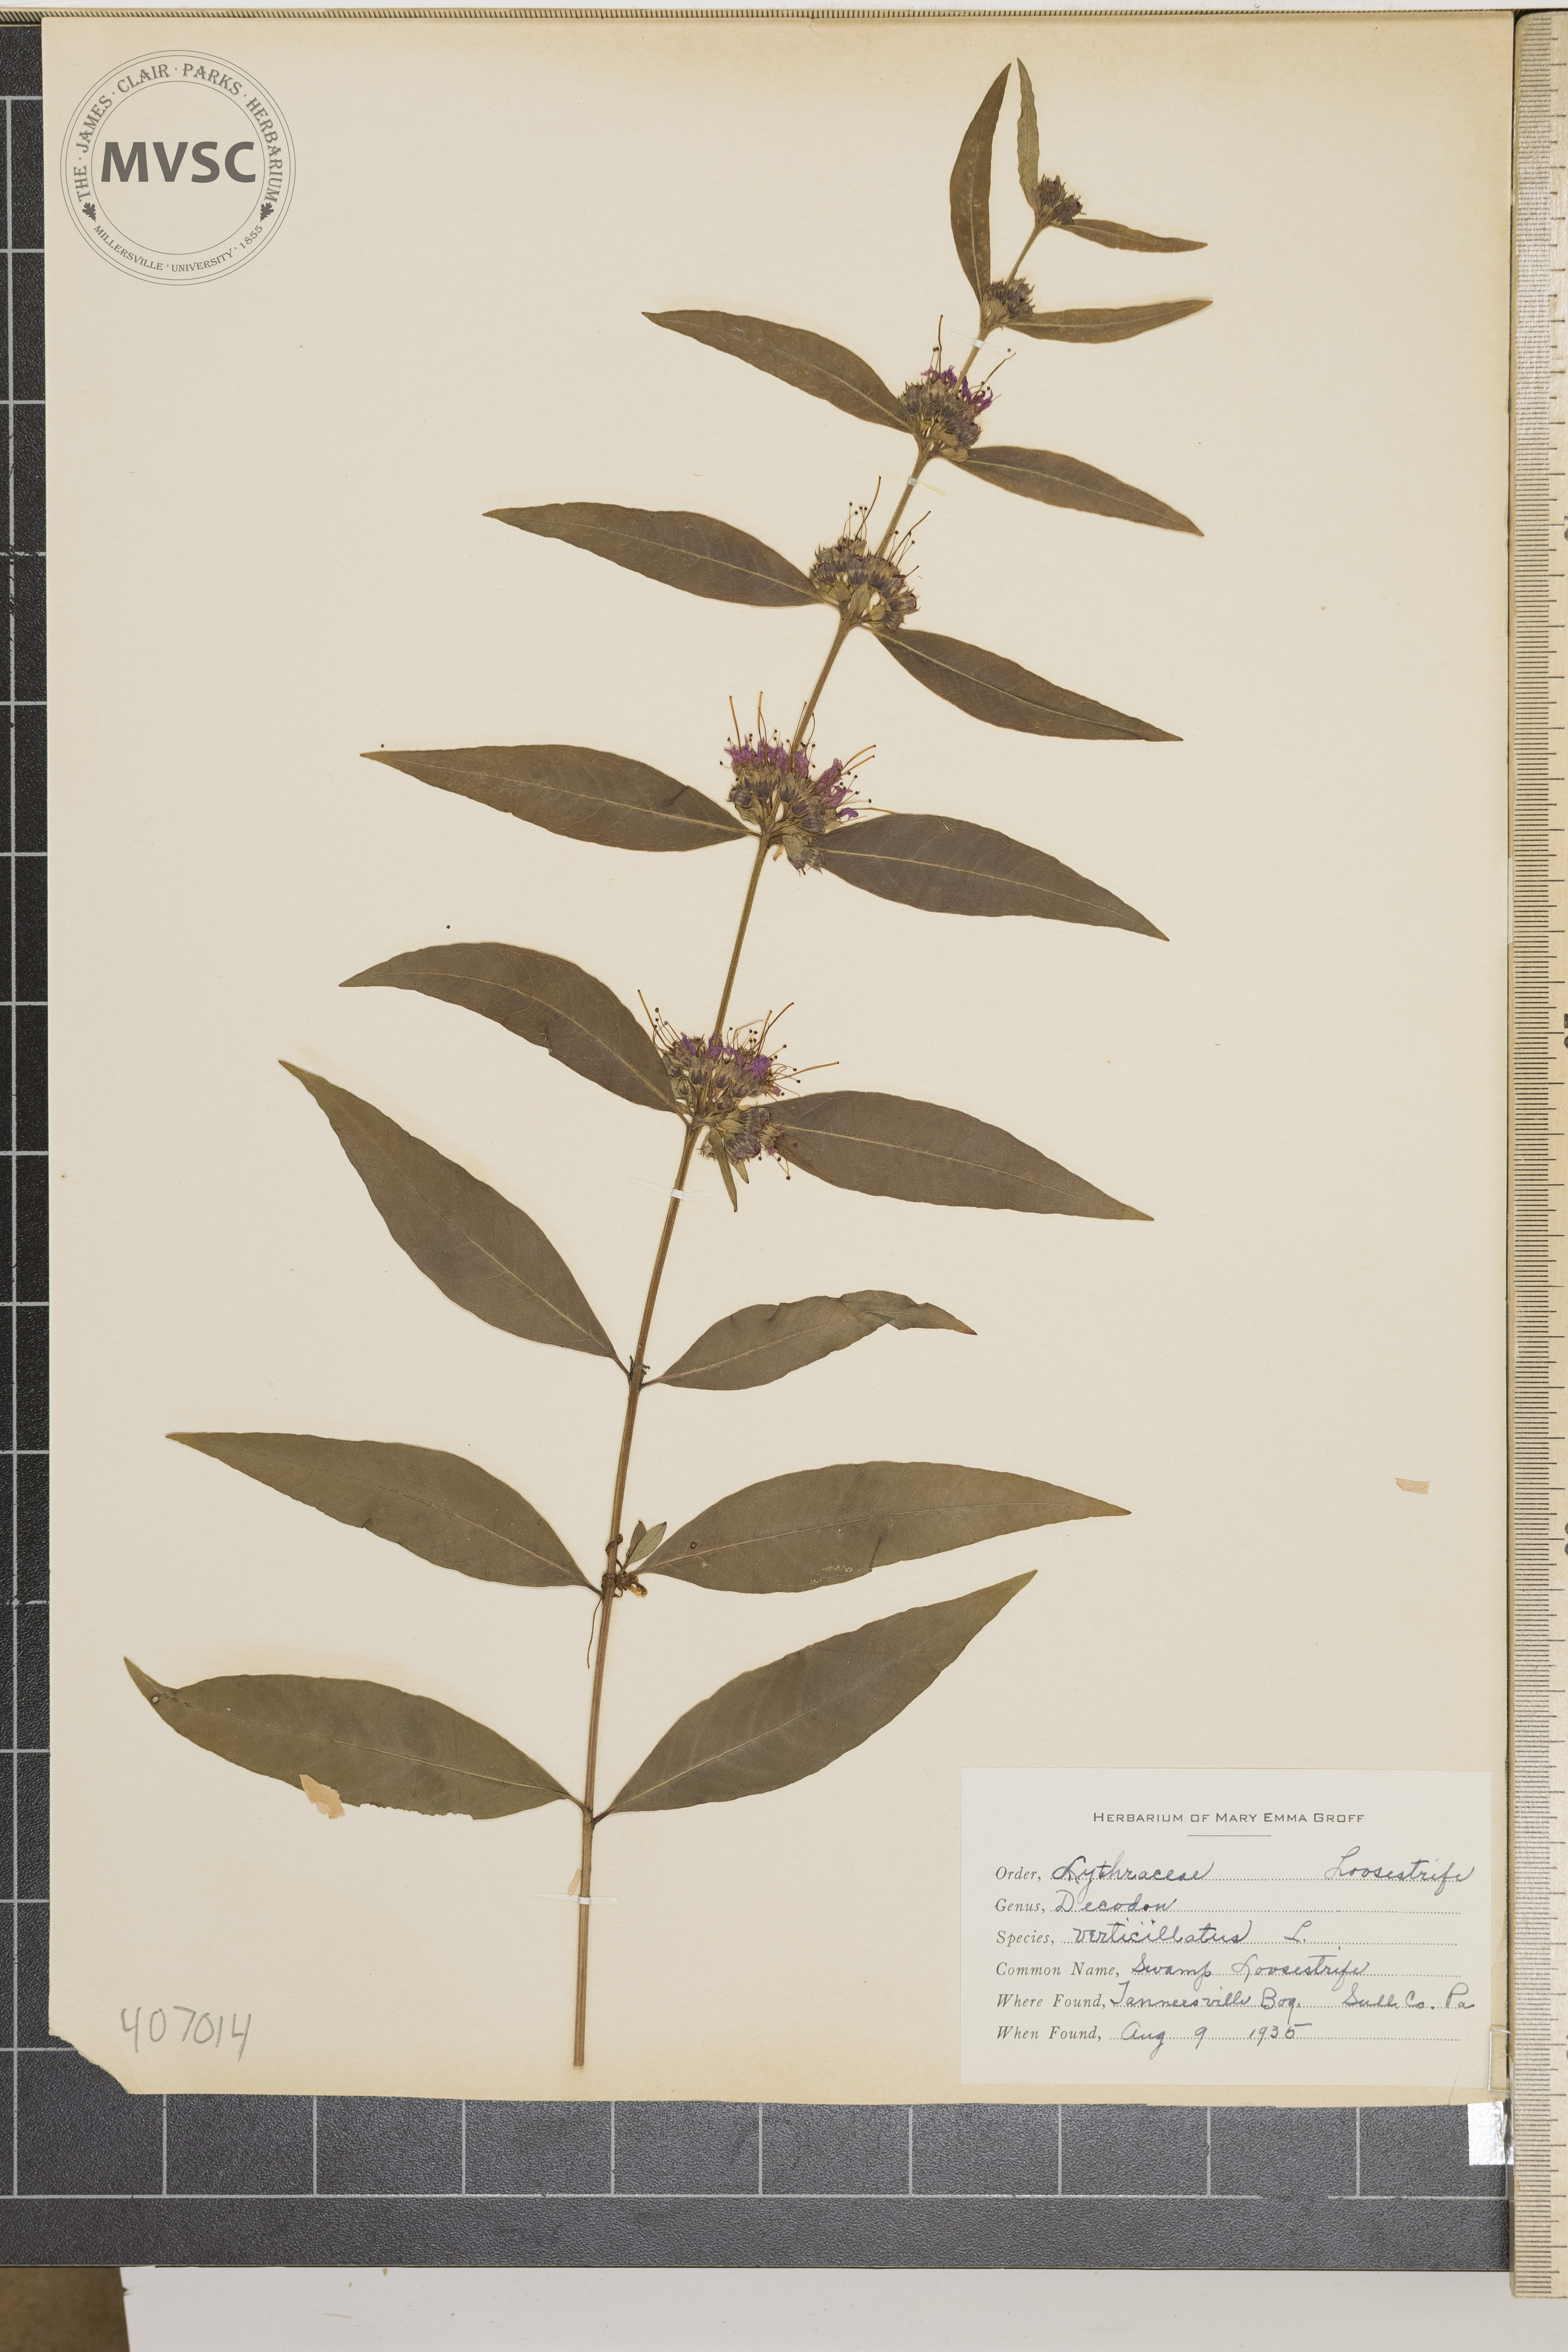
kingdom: Plantae
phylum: Tracheophyta
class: Magnoliopsida
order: Myrtales
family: Lythraceae
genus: Decodon
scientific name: Decodon verticillatus
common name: Swamp Loosestrife
